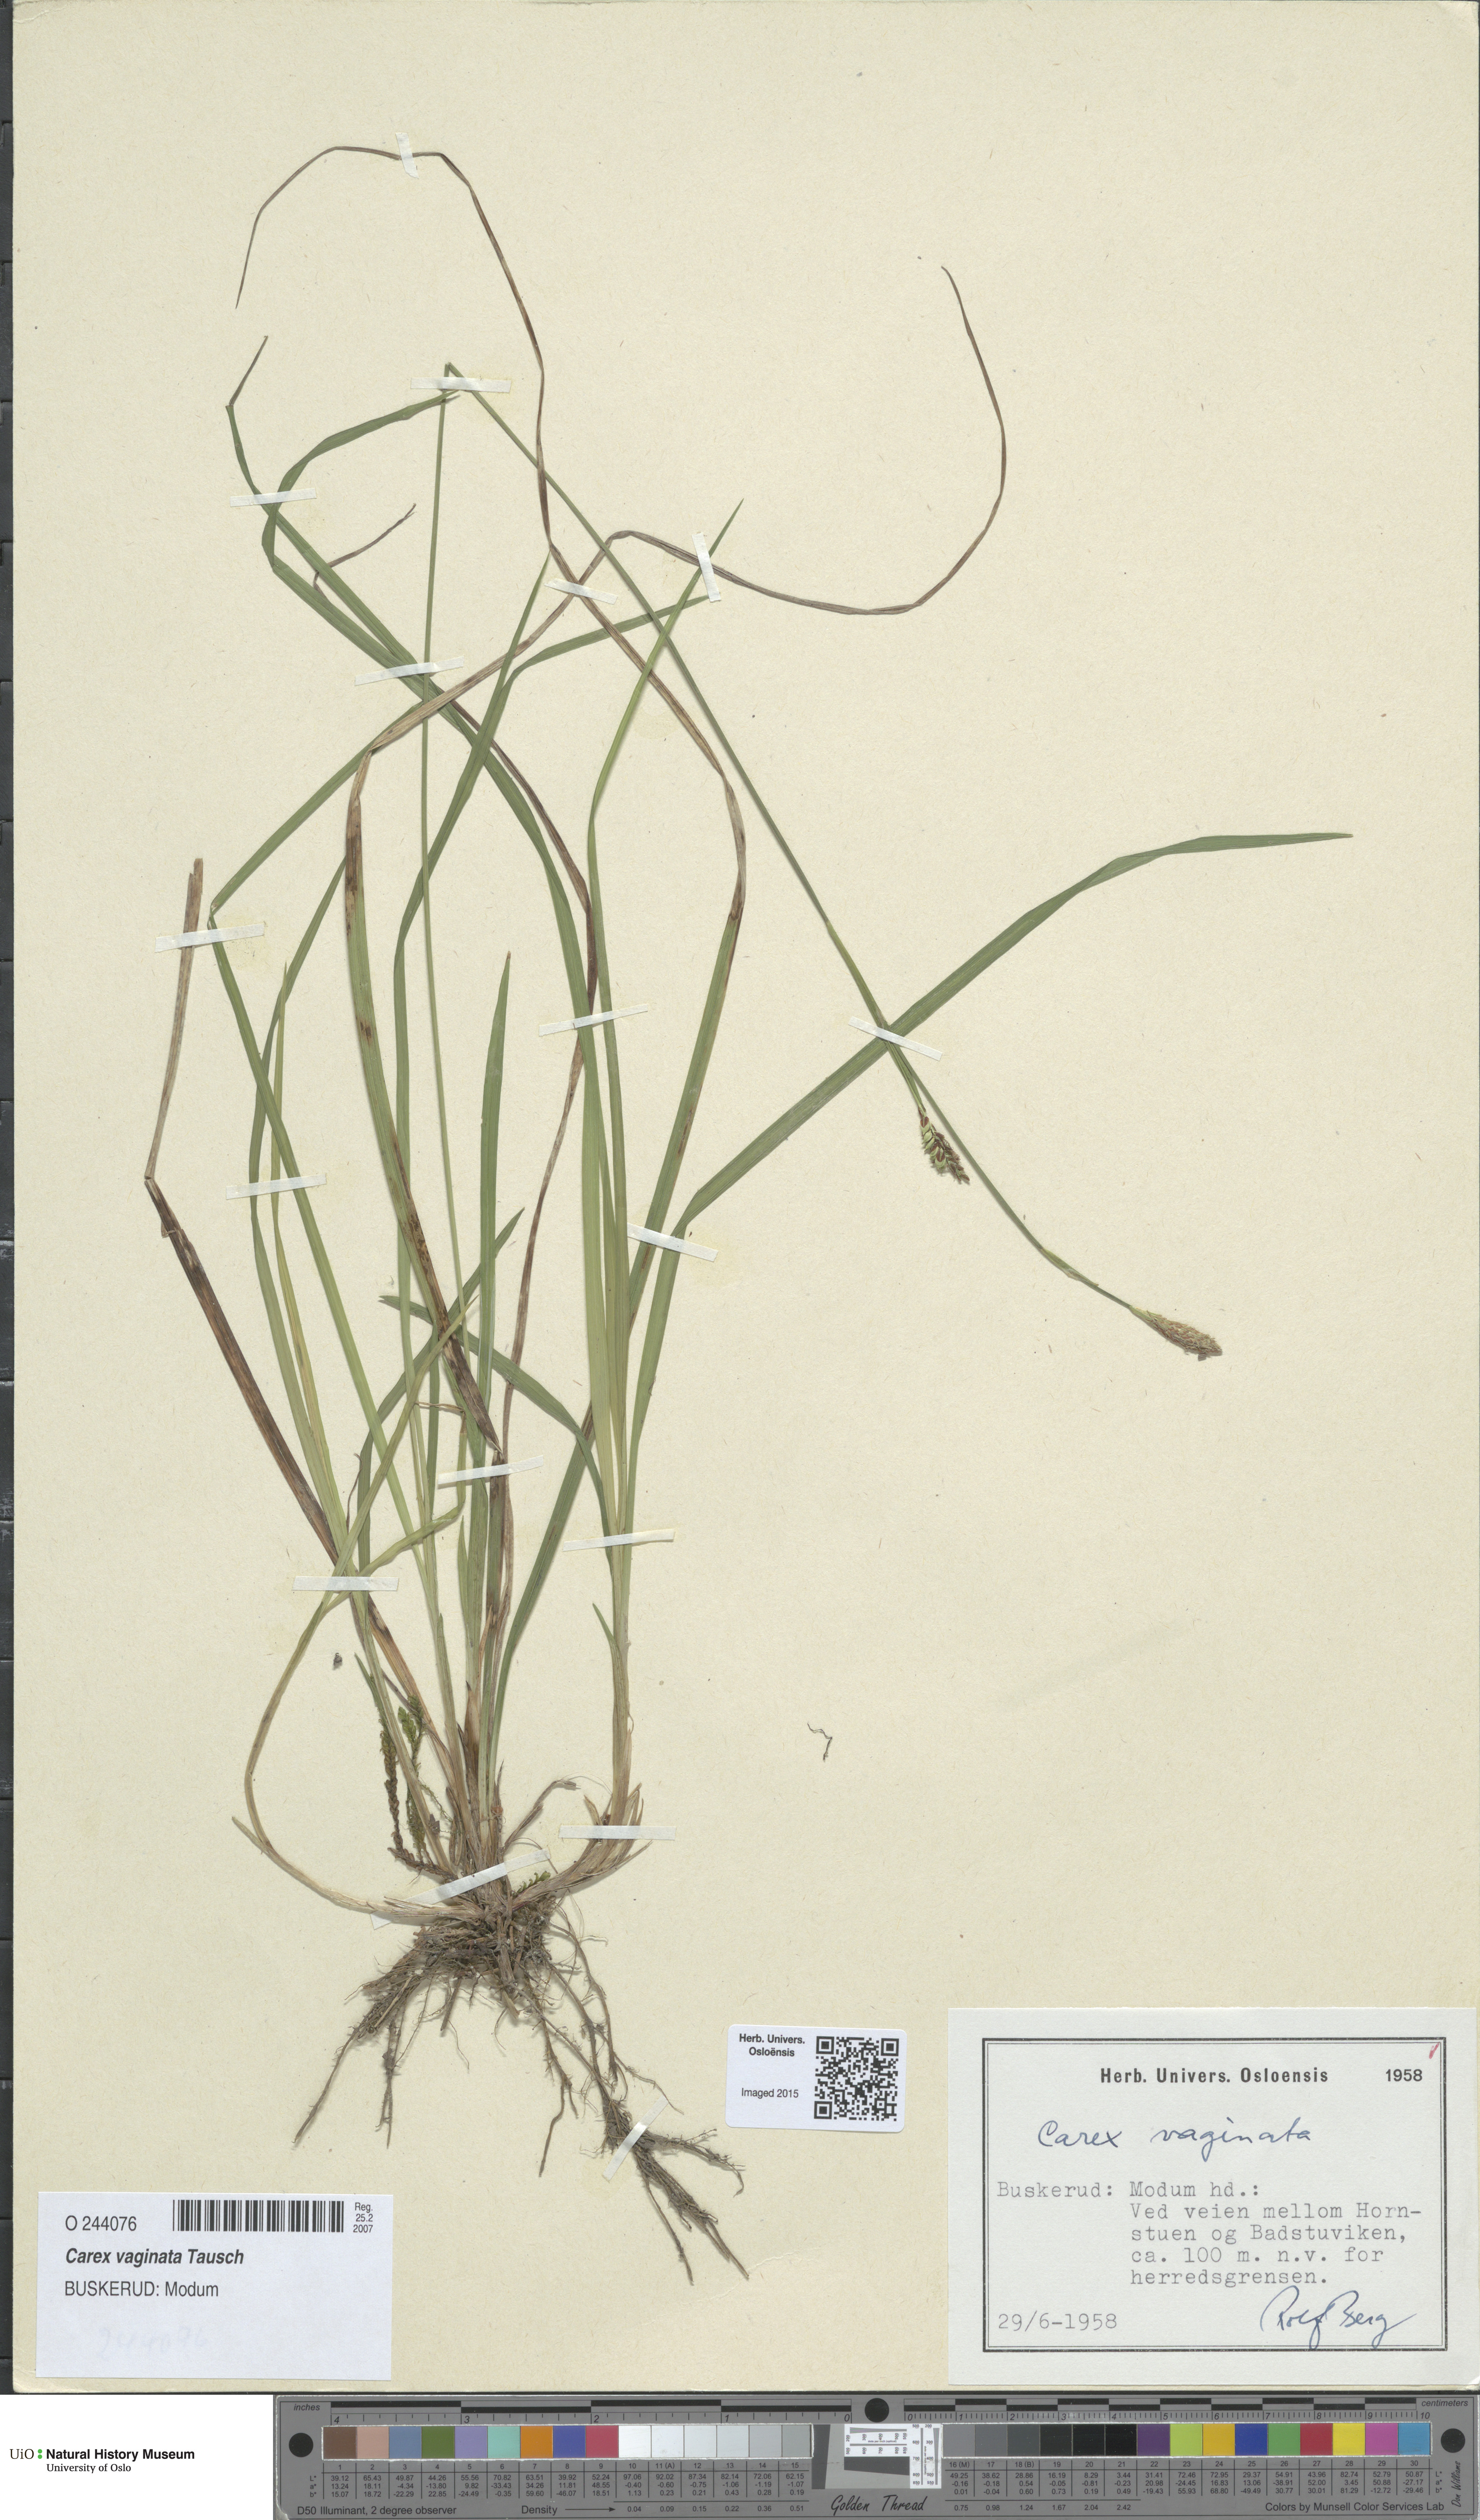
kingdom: Plantae
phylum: Tracheophyta
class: Liliopsida
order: Poales
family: Cyperaceae
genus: Carex
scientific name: Carex vaginata
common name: Sheathed sedge
